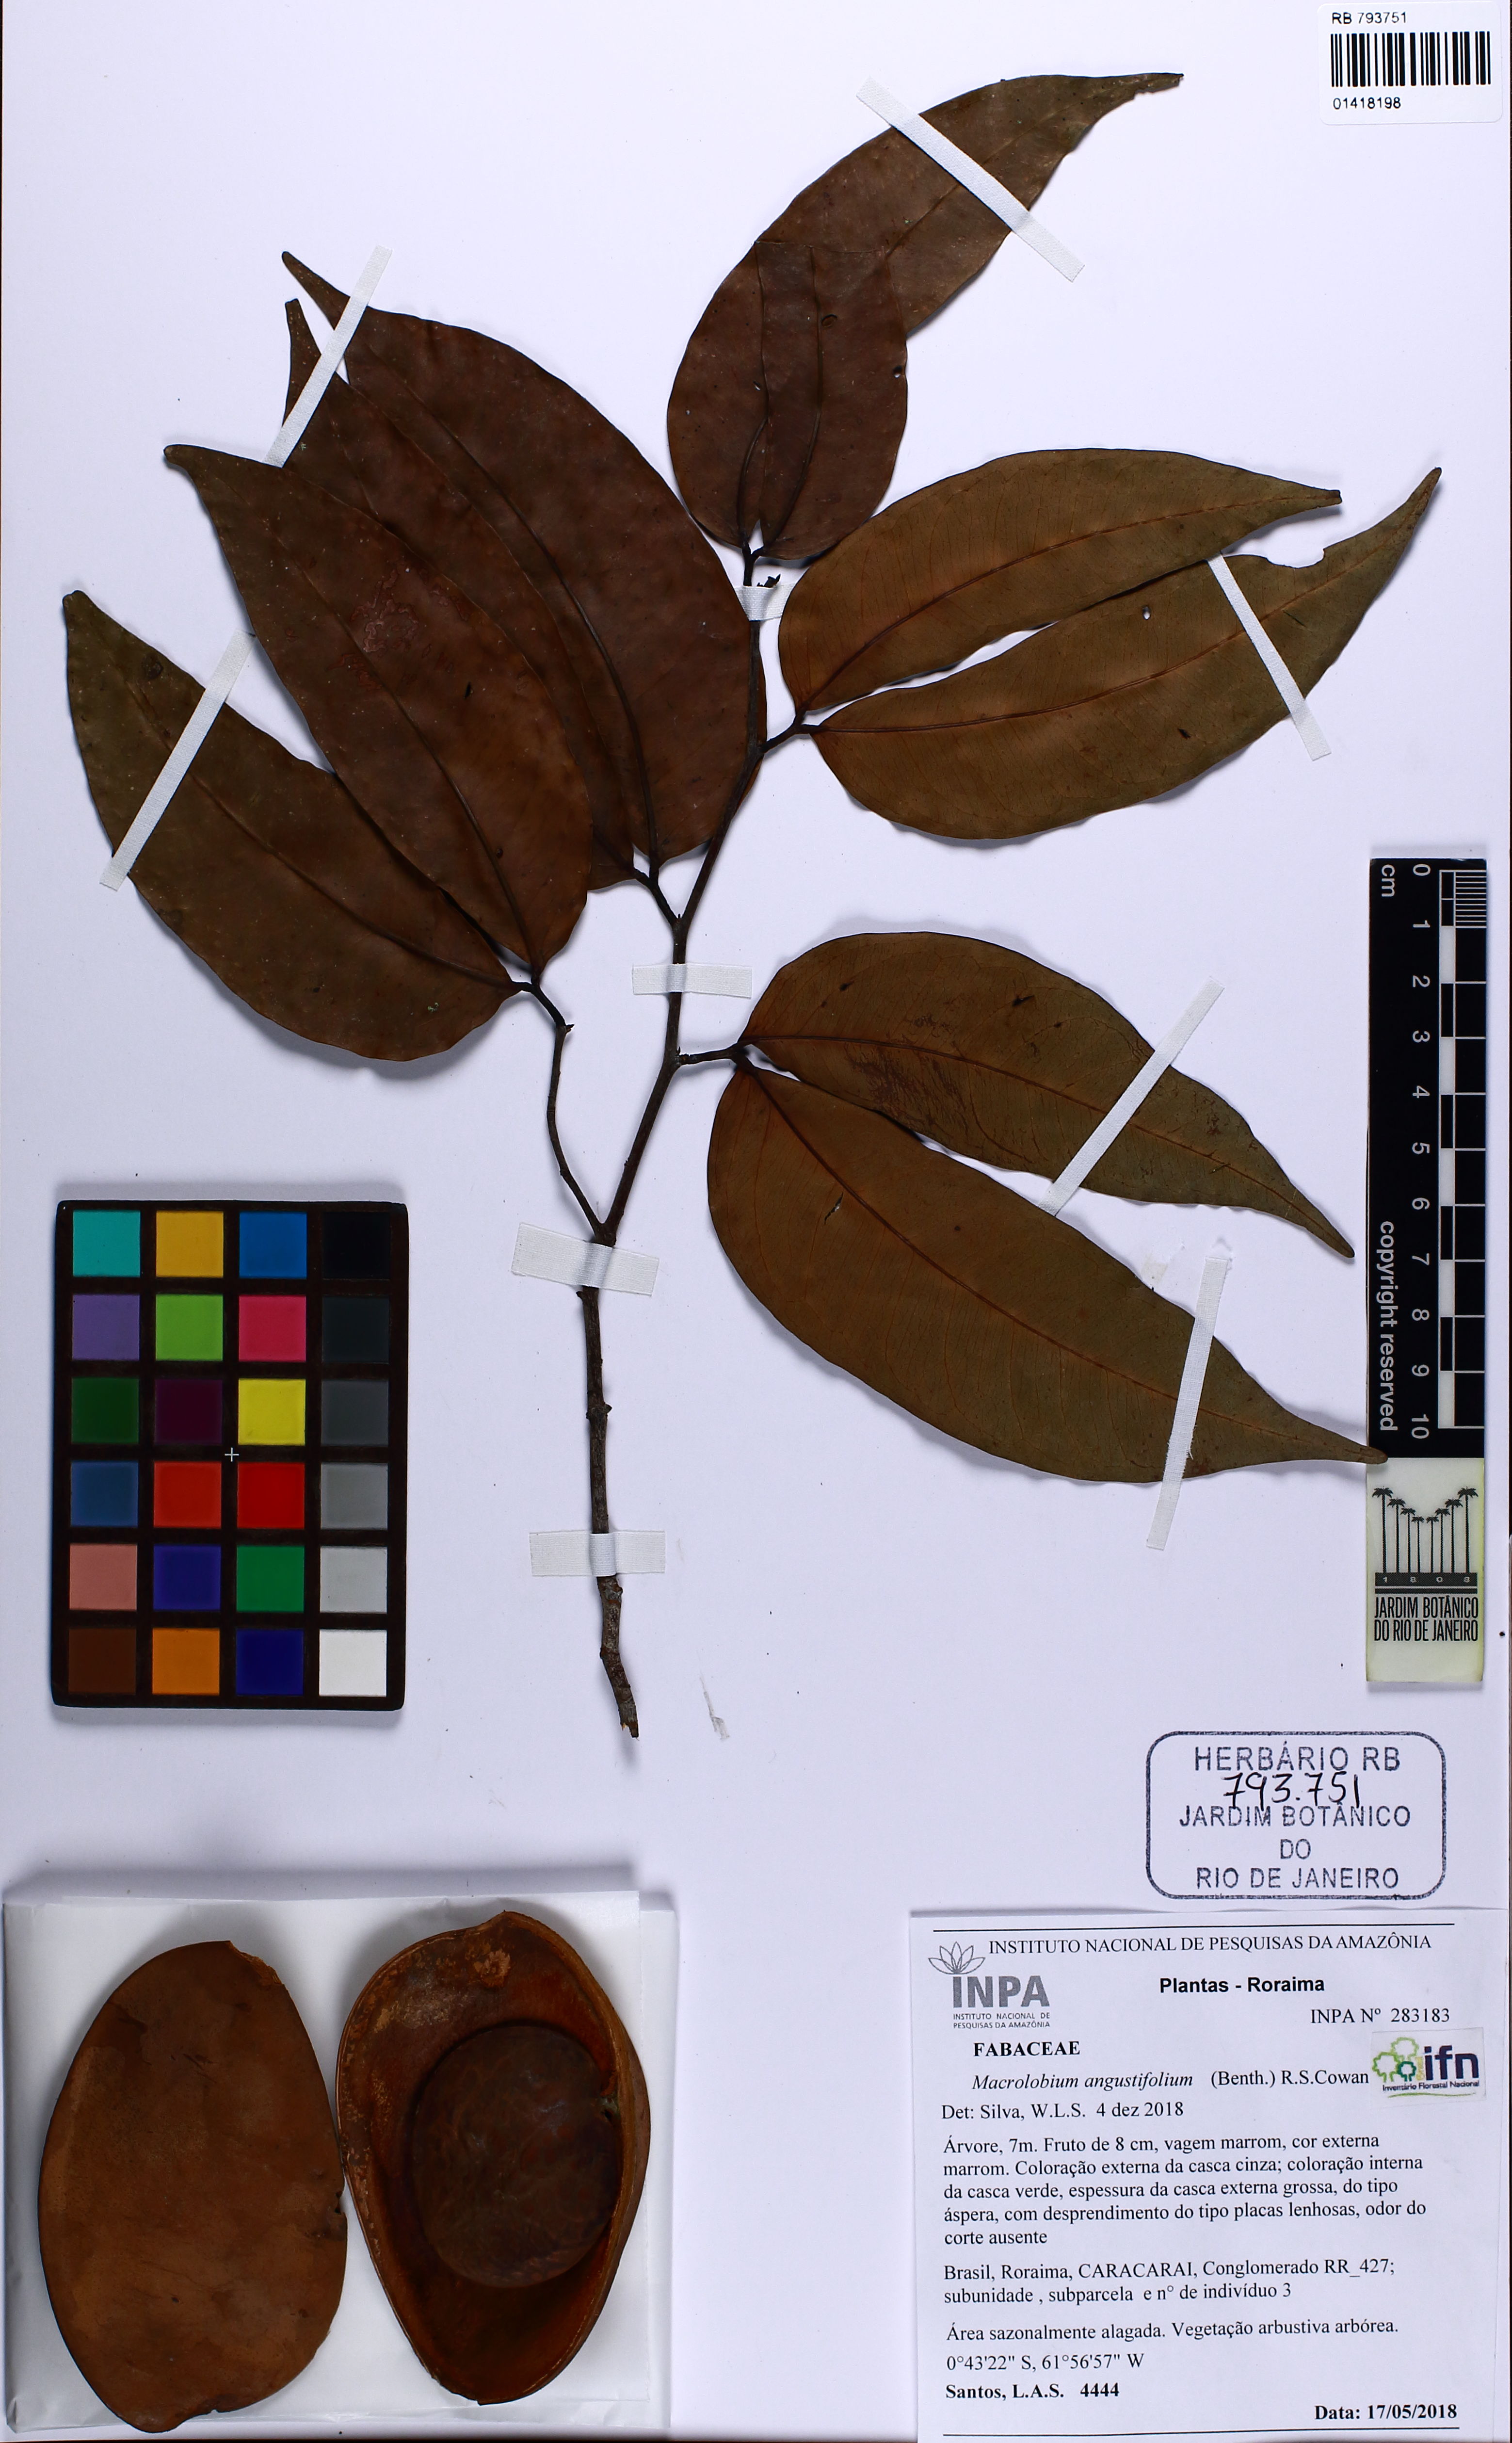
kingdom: Plantae
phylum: Tracheophyta
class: Magnoliopsida
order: Fabales
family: Fabaceae
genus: Macrolobium
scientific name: Macrolobium angustifolium
